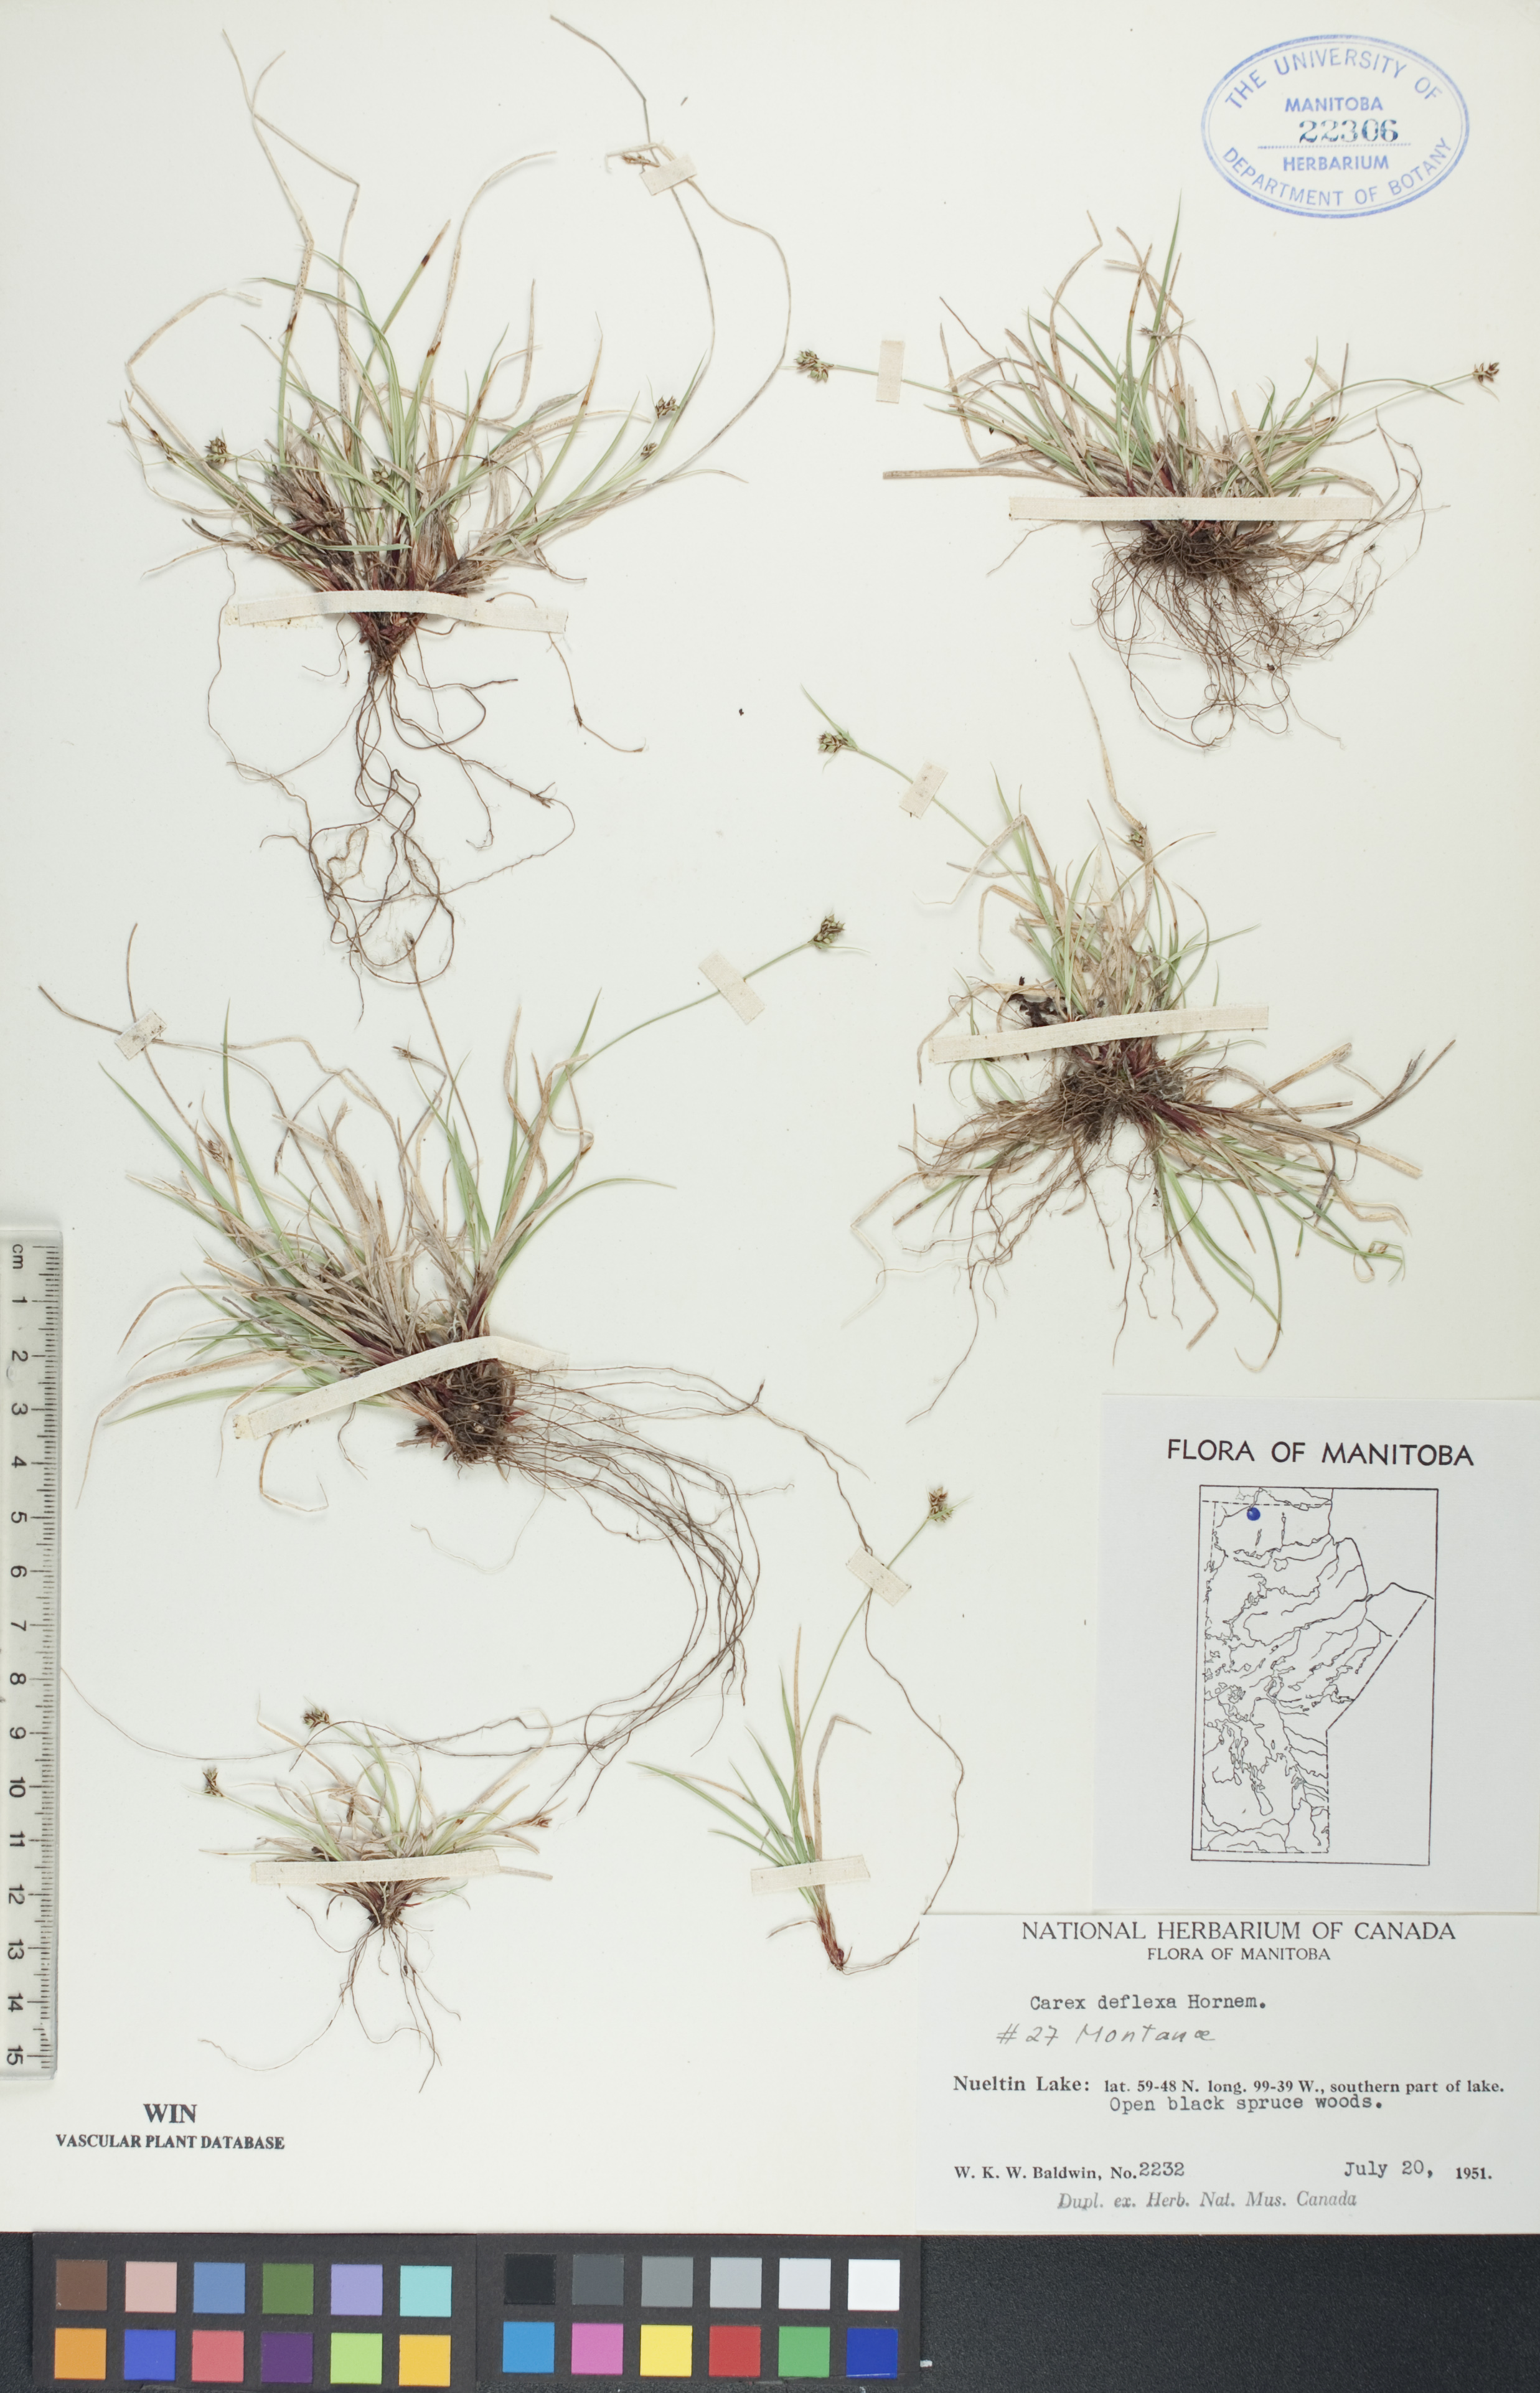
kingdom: Plantae
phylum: Tracheophyta
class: Liliopsida
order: Poales
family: Cyperaceae
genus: Carex
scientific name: Carex deflexa
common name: Bent northern sedge
